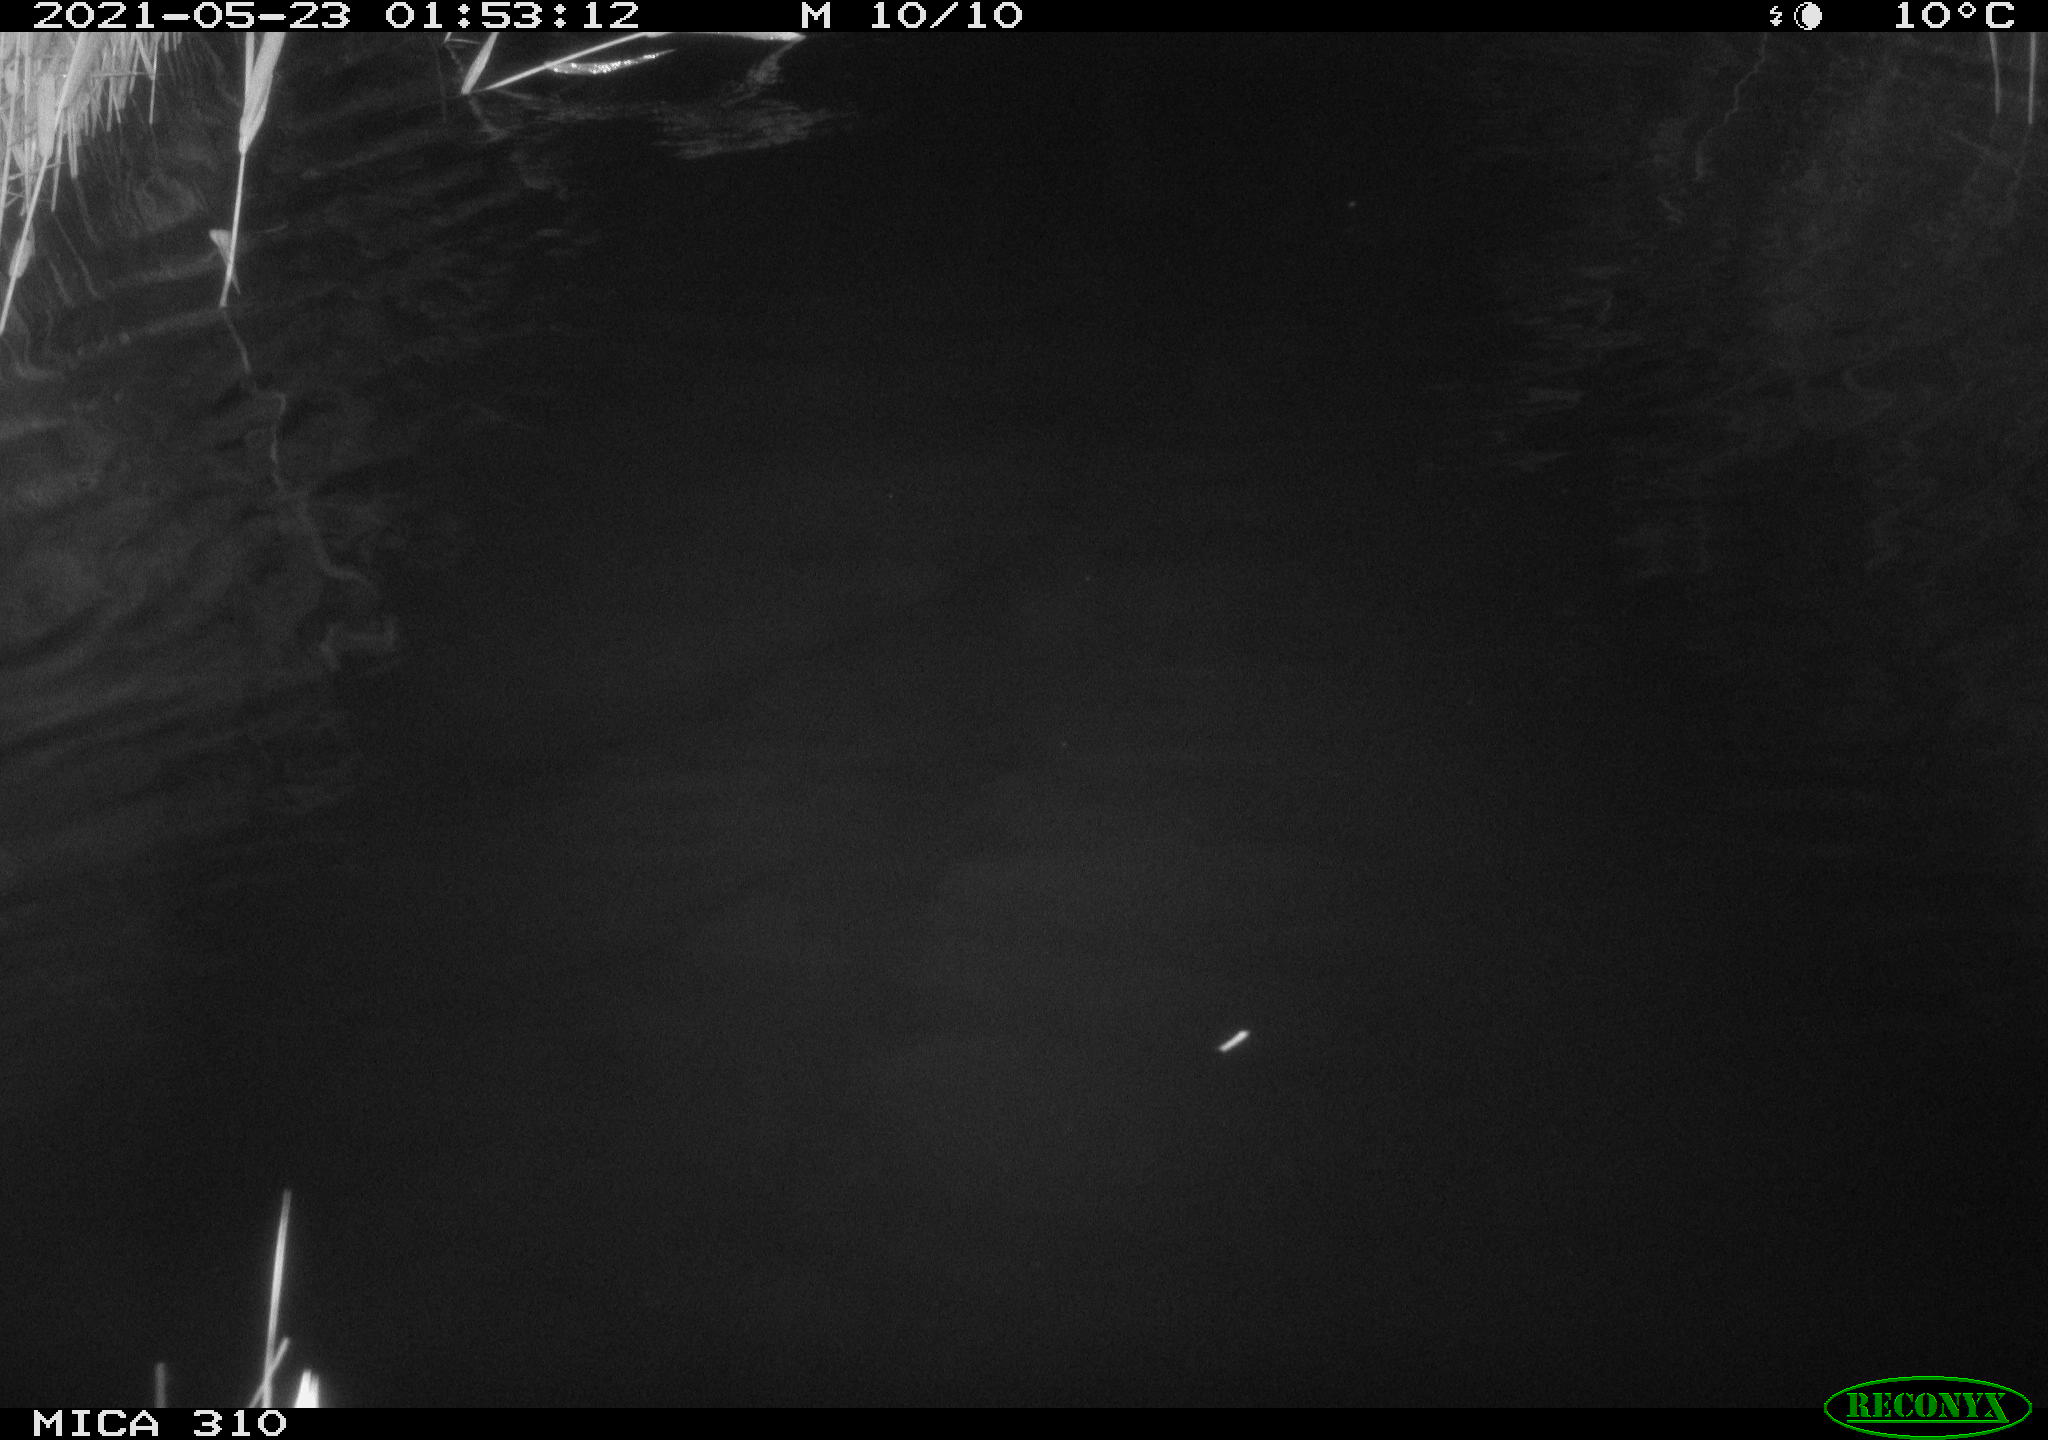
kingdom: Animalia
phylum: Chordata
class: Mammalia
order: Rodentia
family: Cricetidae
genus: Ondatra
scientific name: Ondatra zibethicus
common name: Muskrat
